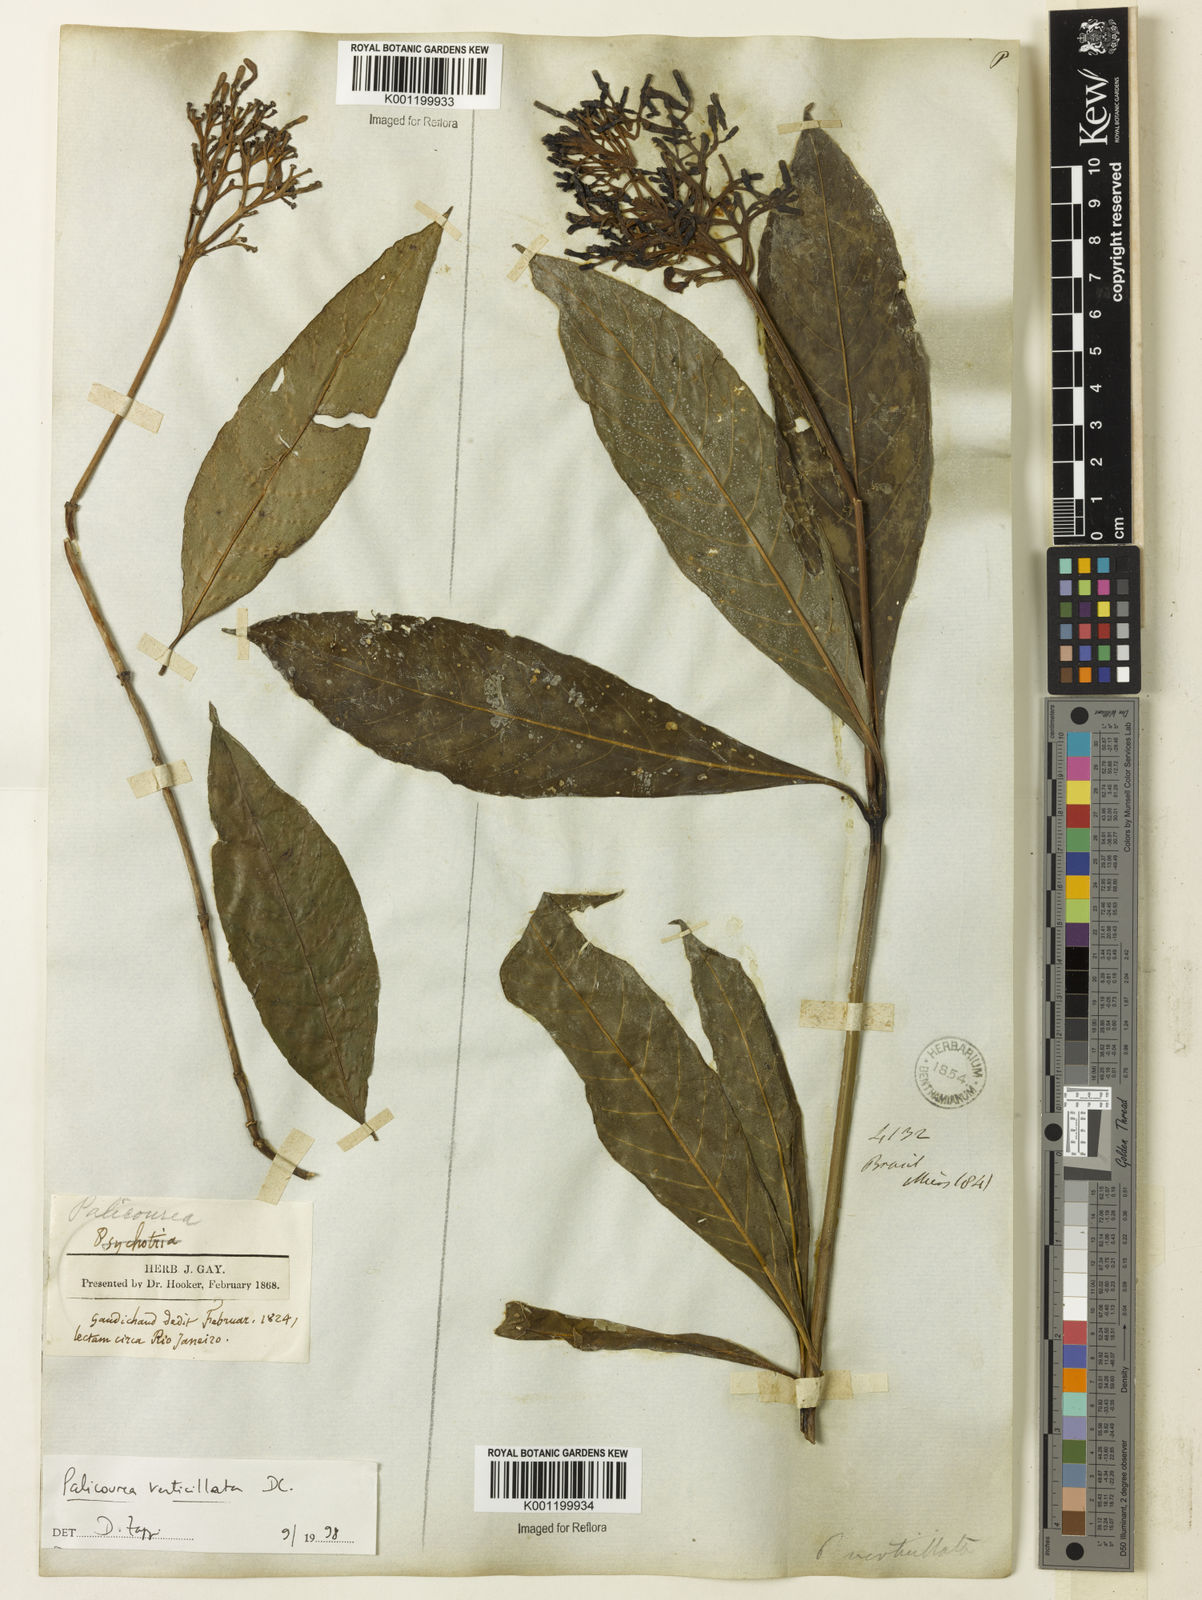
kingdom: Plantae
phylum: Tracheophyta
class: Magnoliopsida
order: Gentianales
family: Rubiaceae
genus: Palicourea
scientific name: Palicourea tetraphylla
